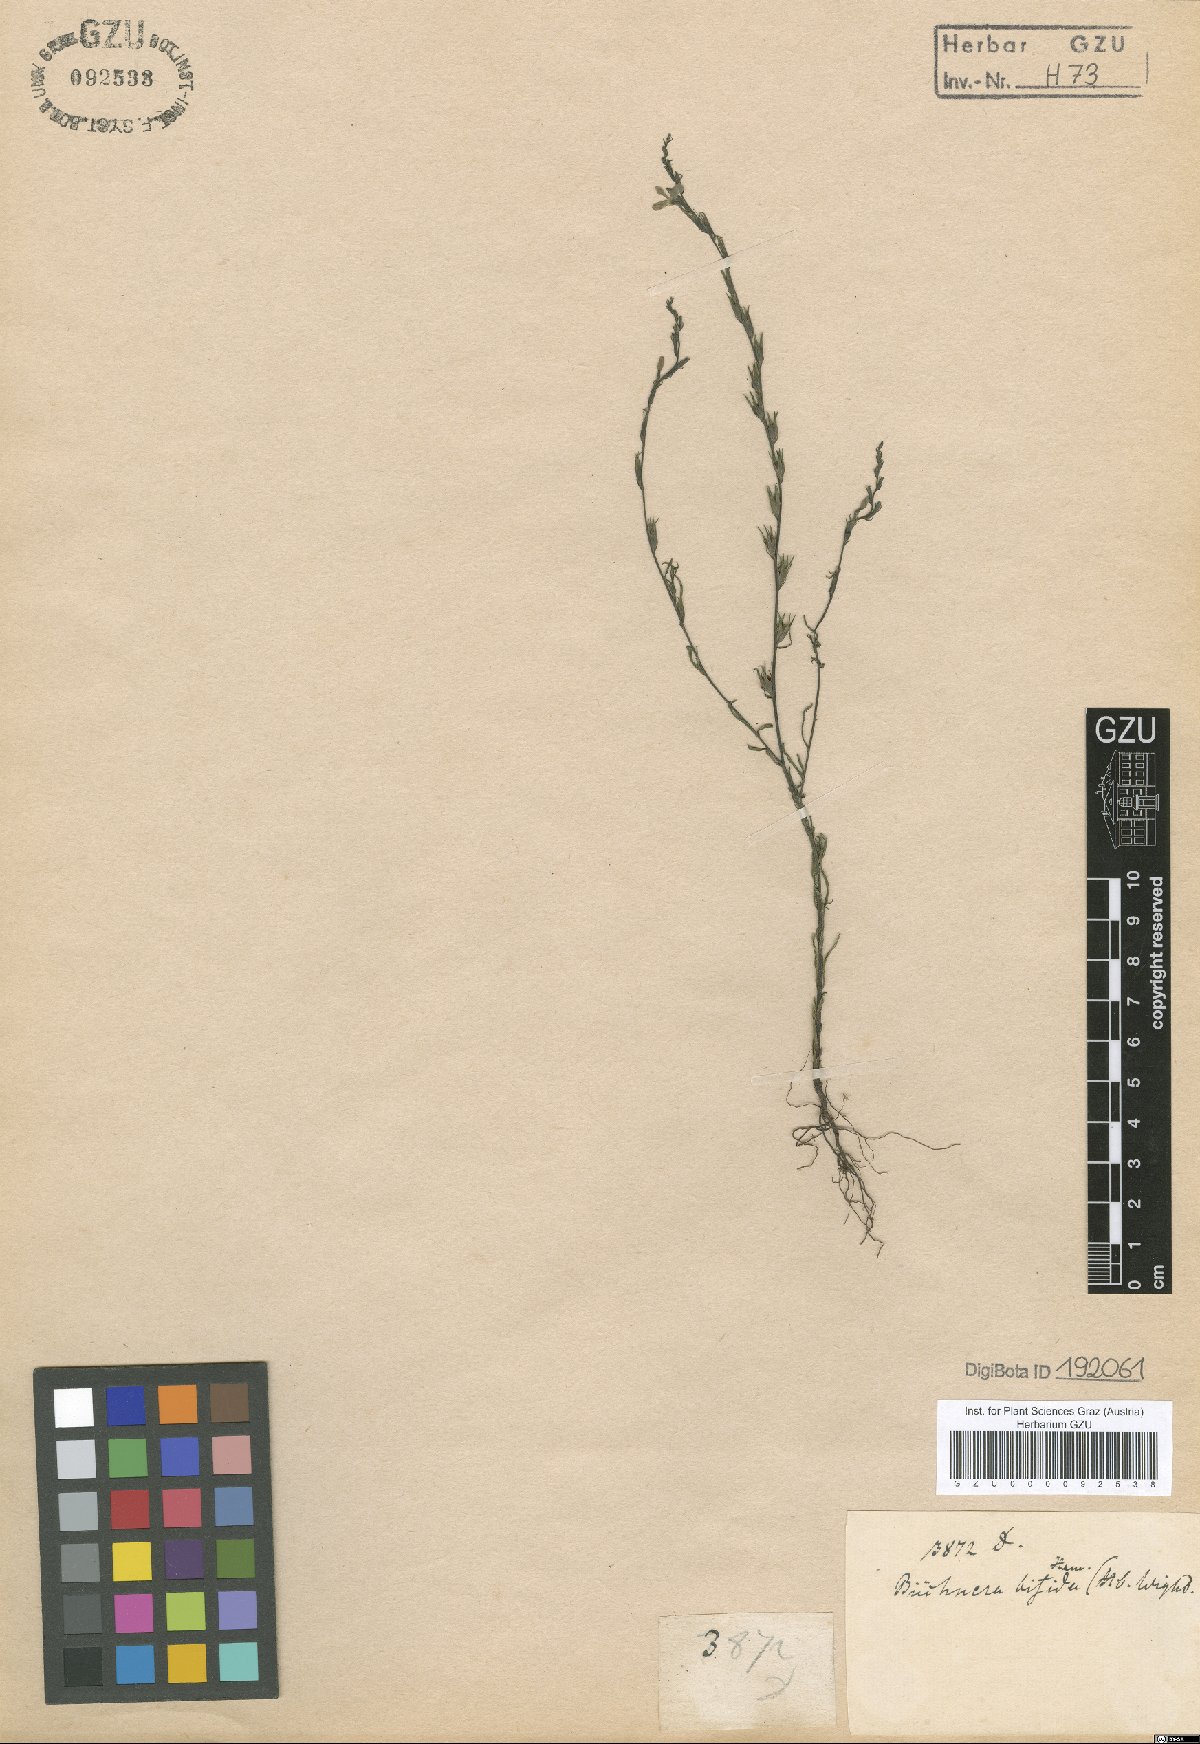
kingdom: Plantae
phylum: Tracheophyta
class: Magnoliopsida
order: Lamiales
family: Scrophulariaceae
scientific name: Scrophulariaceae
